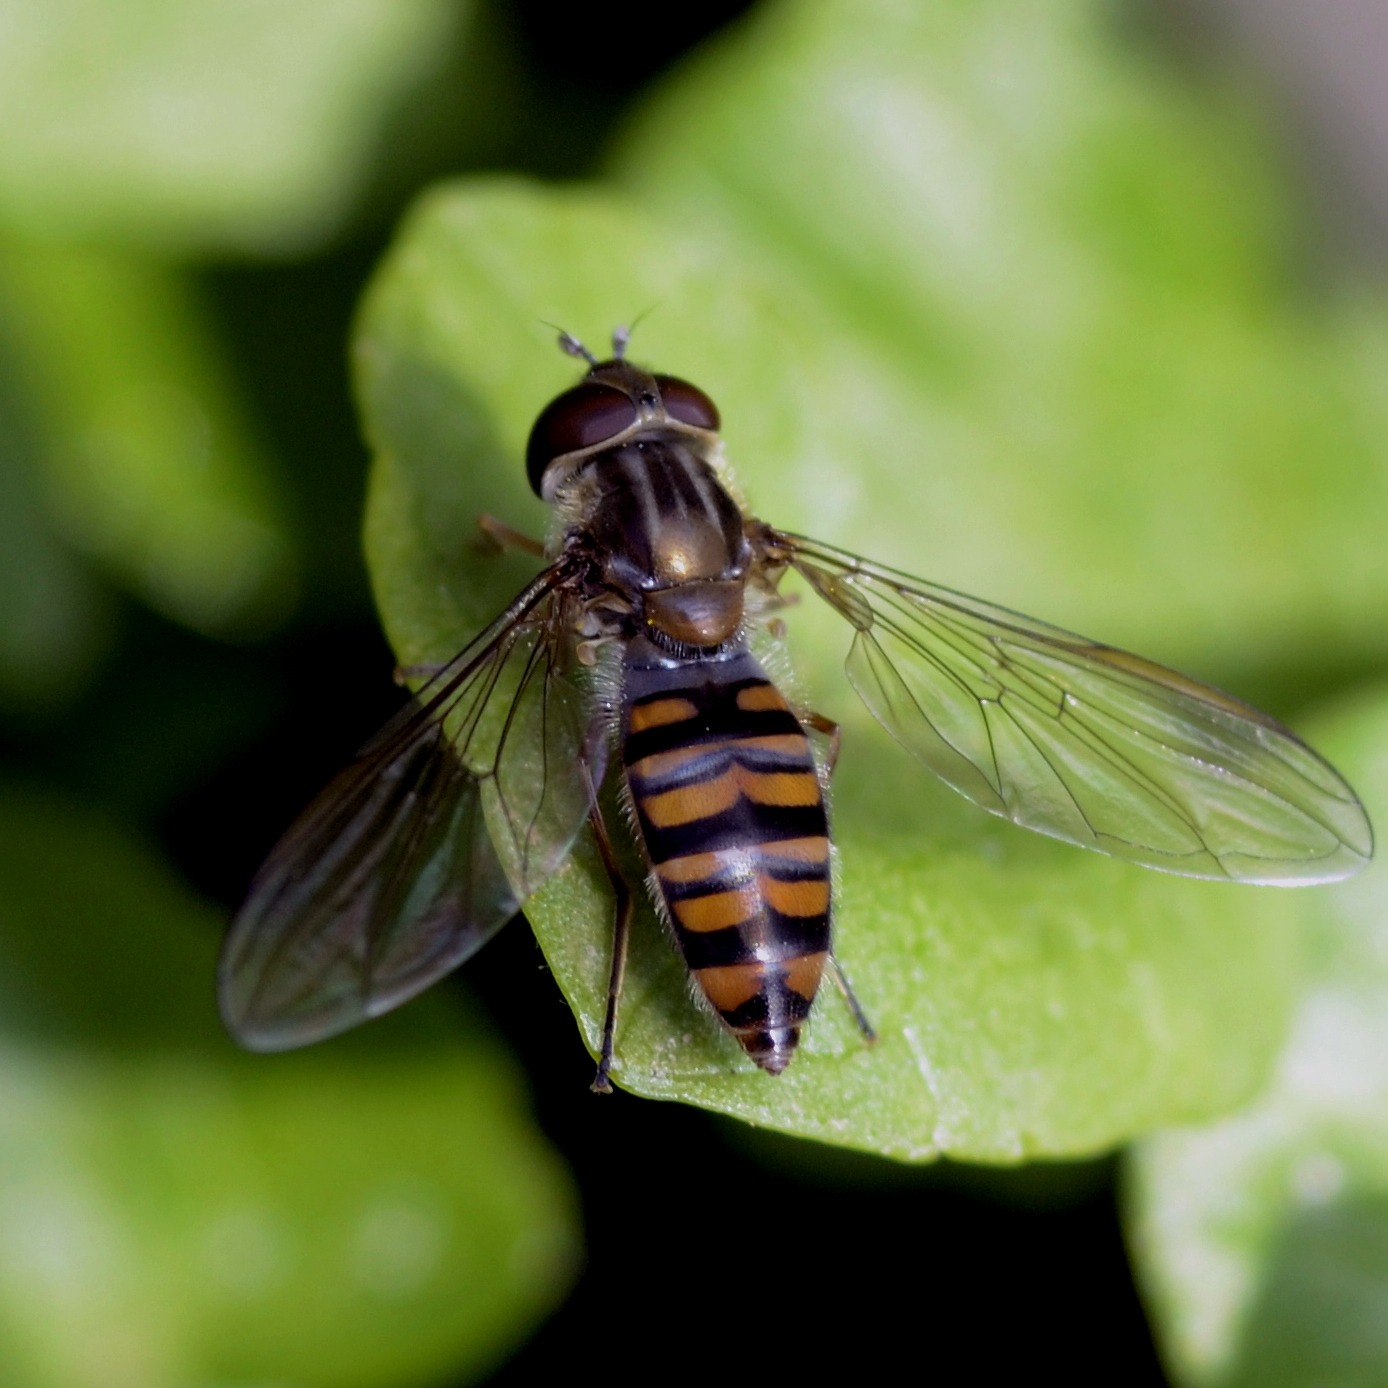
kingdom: Animalia
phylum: Arthropoda
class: Insecta
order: Diptera
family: Syrphidae
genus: Episyrphus
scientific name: Episyrphus balteatus
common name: Dobbeltbåndet svirreflue
